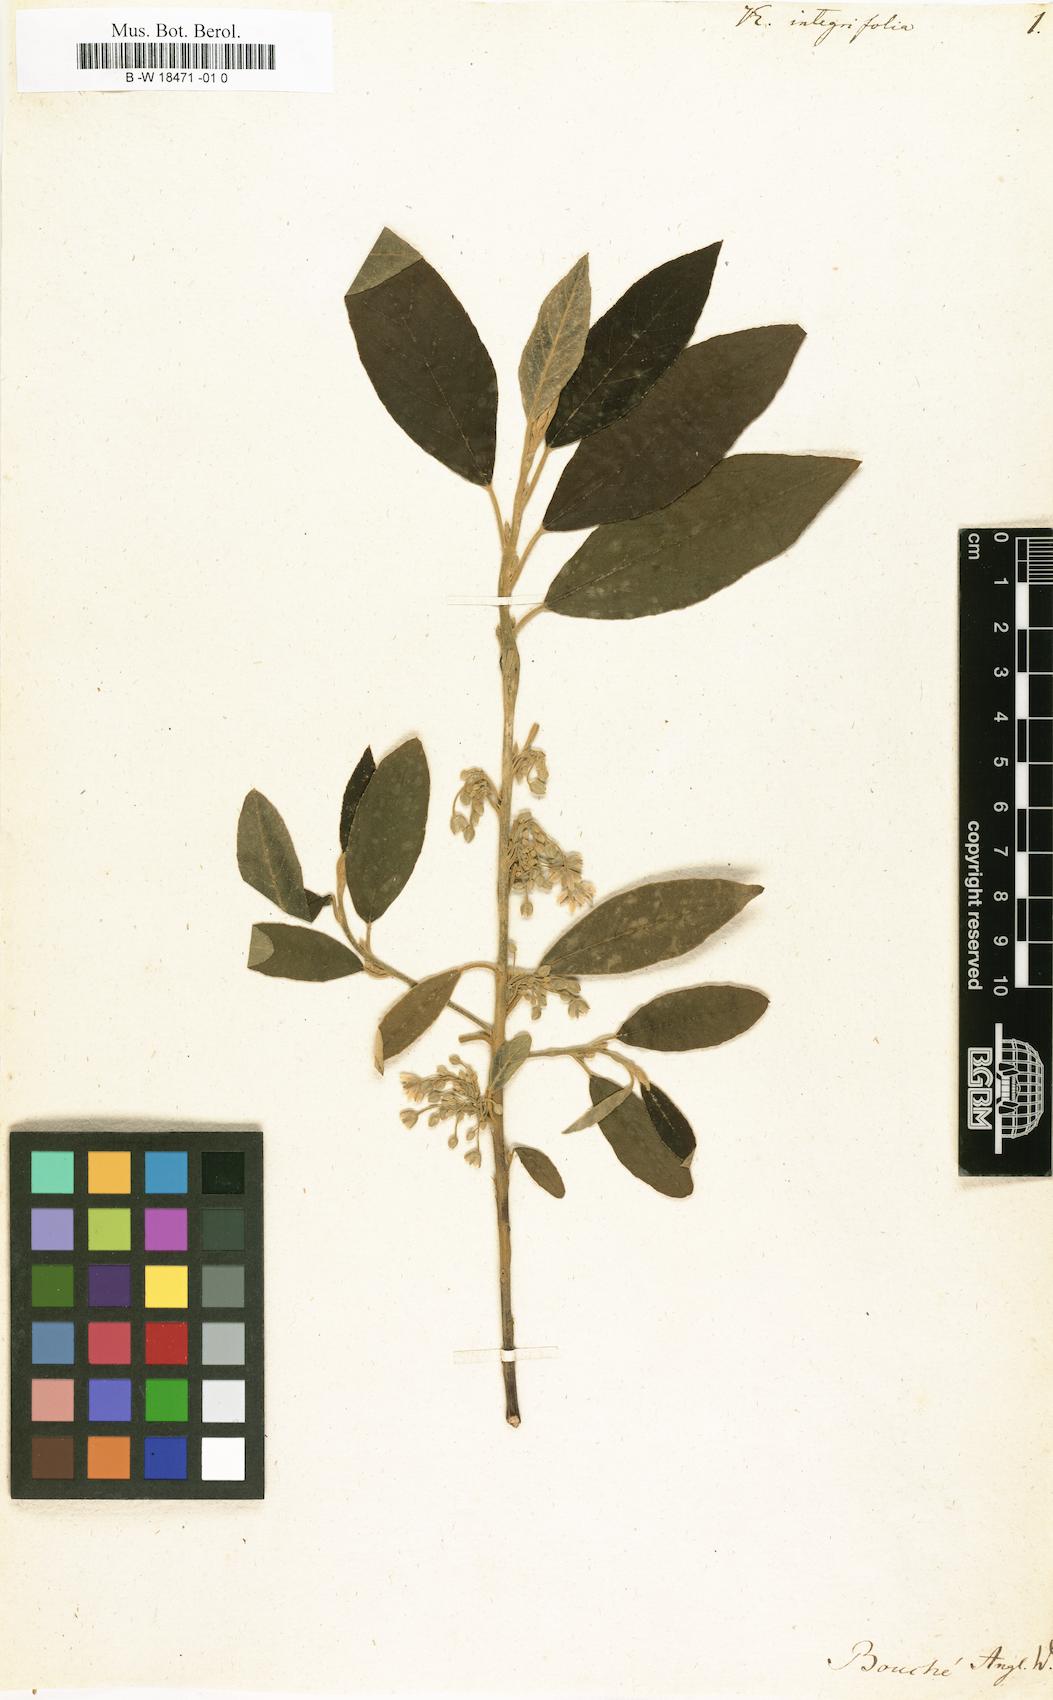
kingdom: Plantae
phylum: Tracheophyta
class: Magnoliopsida
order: Malpighiales
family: Achariaceae
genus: Kiggelaria
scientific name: Kiggelaria africana
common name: Wild peach
